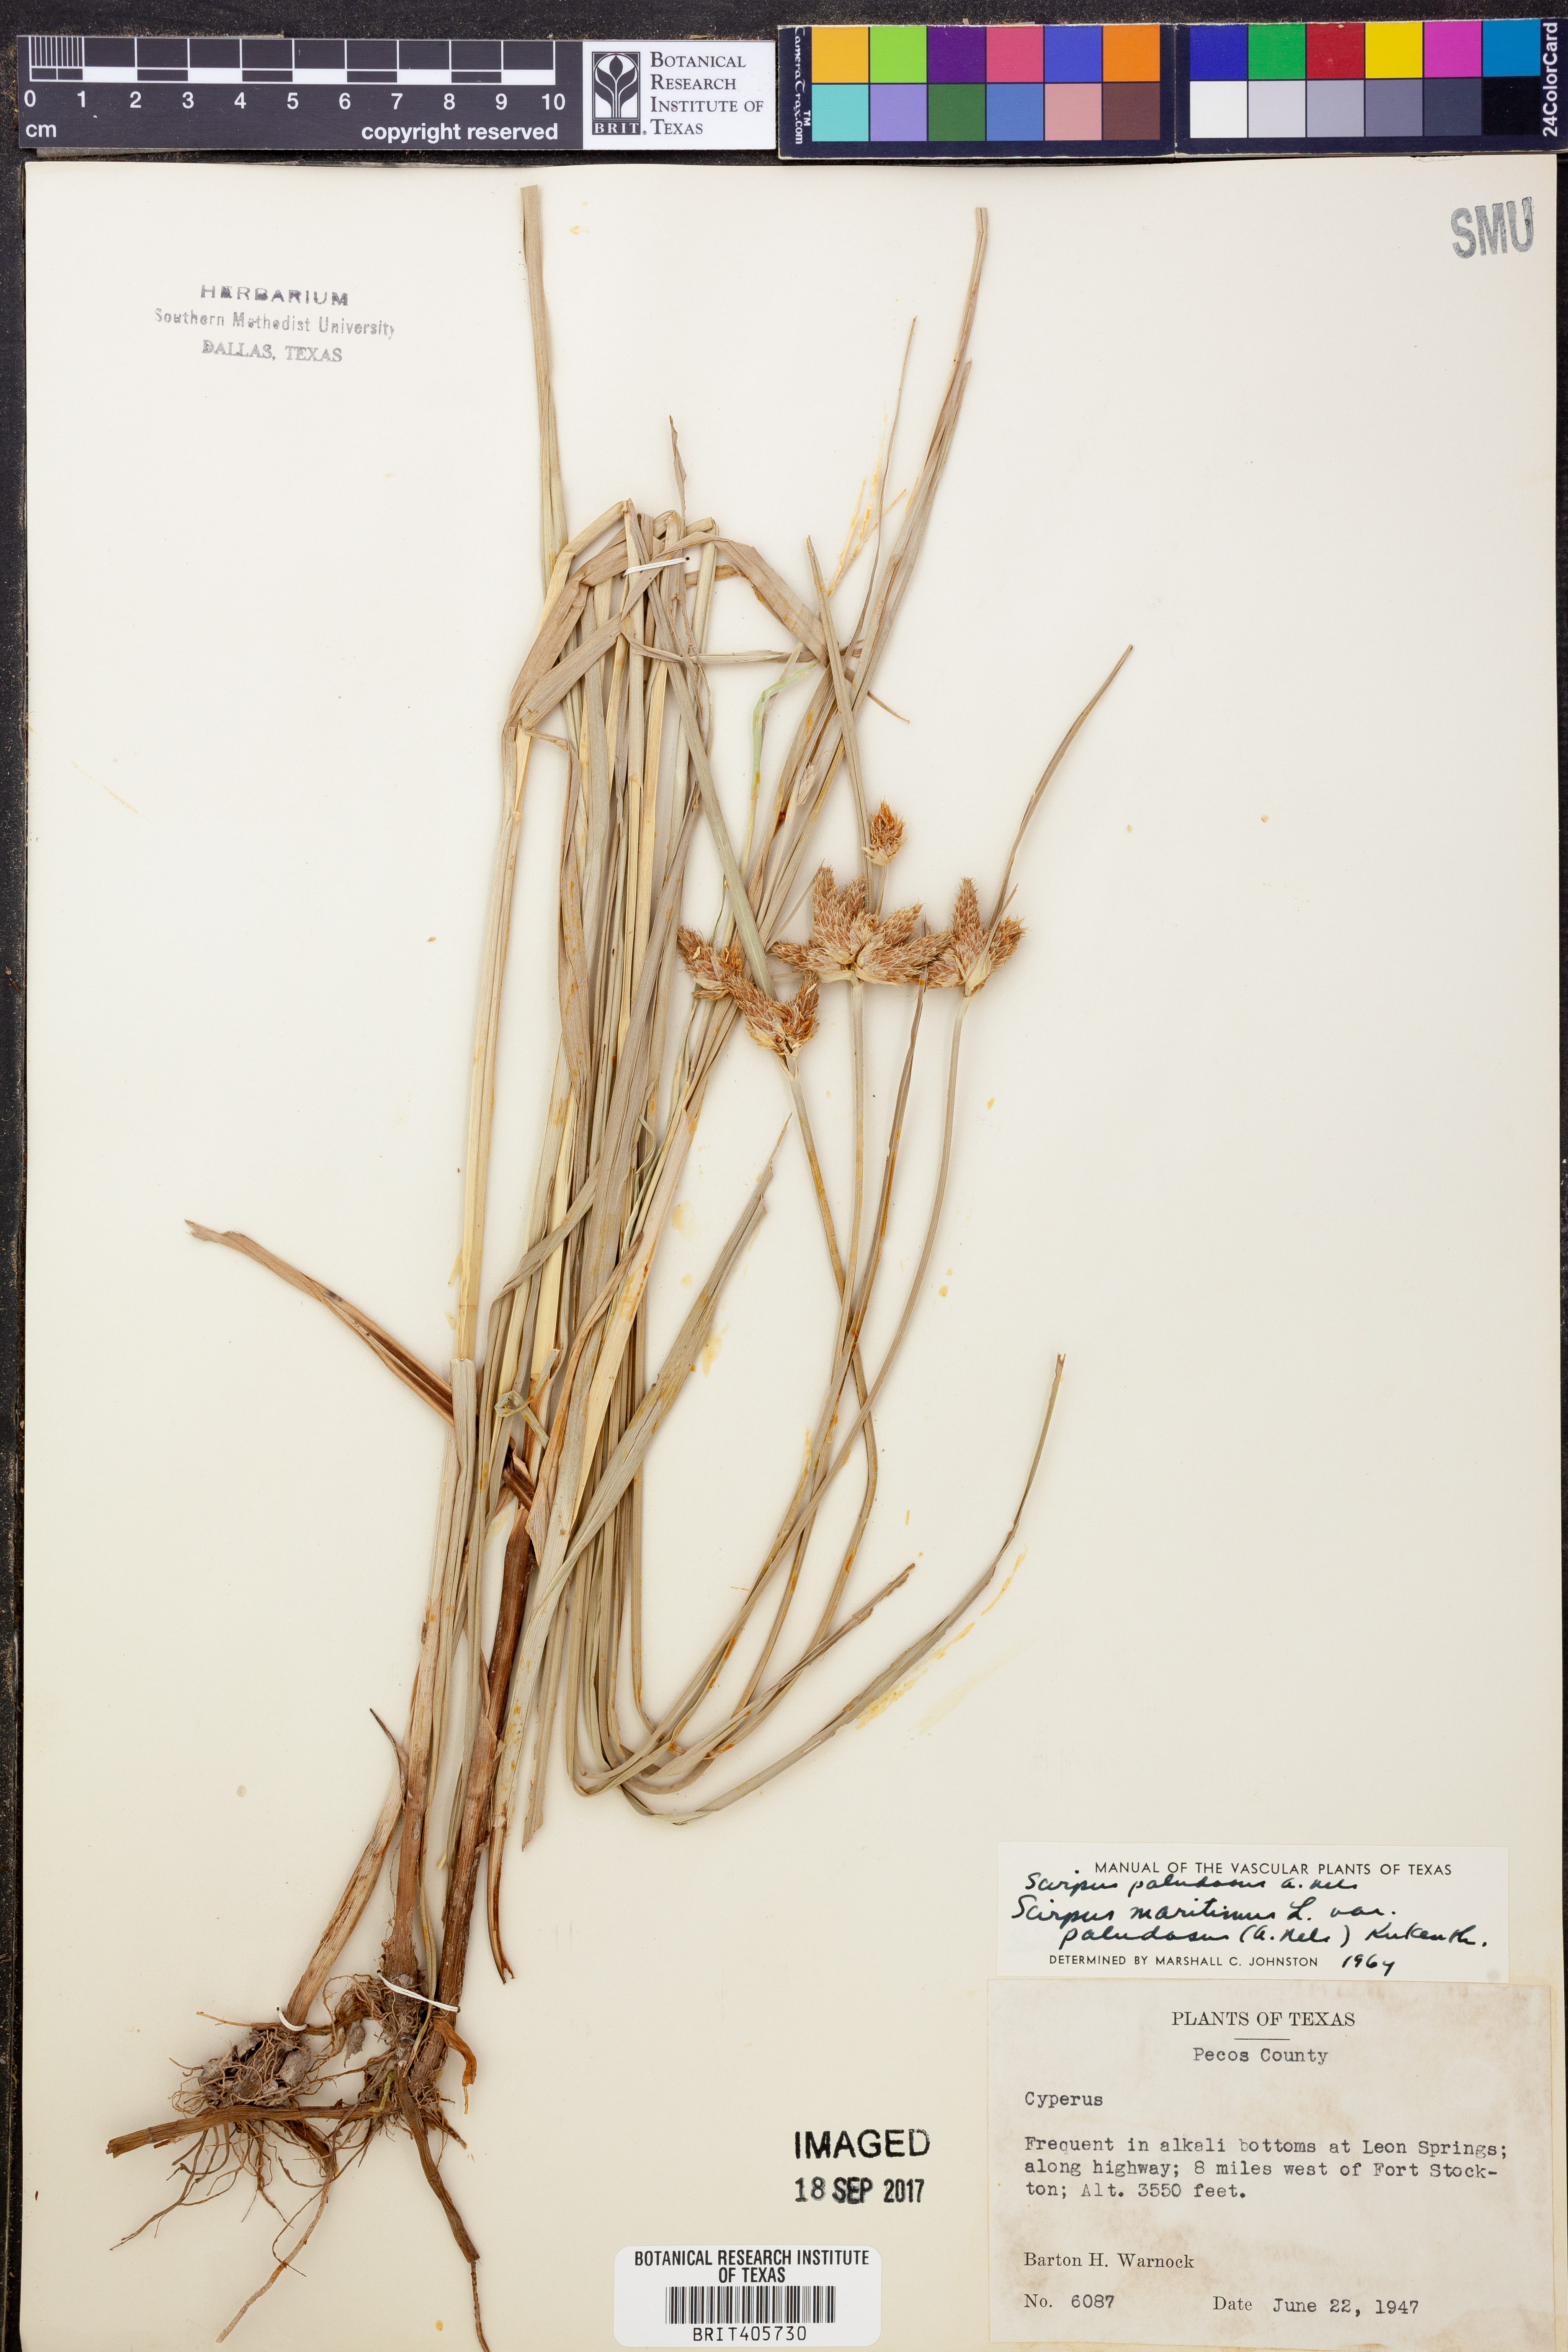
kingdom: Plantae
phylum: Tracheophyta
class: Liliopsida
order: Poales
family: Cyperaceae
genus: Bolboschoenus
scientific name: Bolboschoenus maritimus
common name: Sea club-rush
